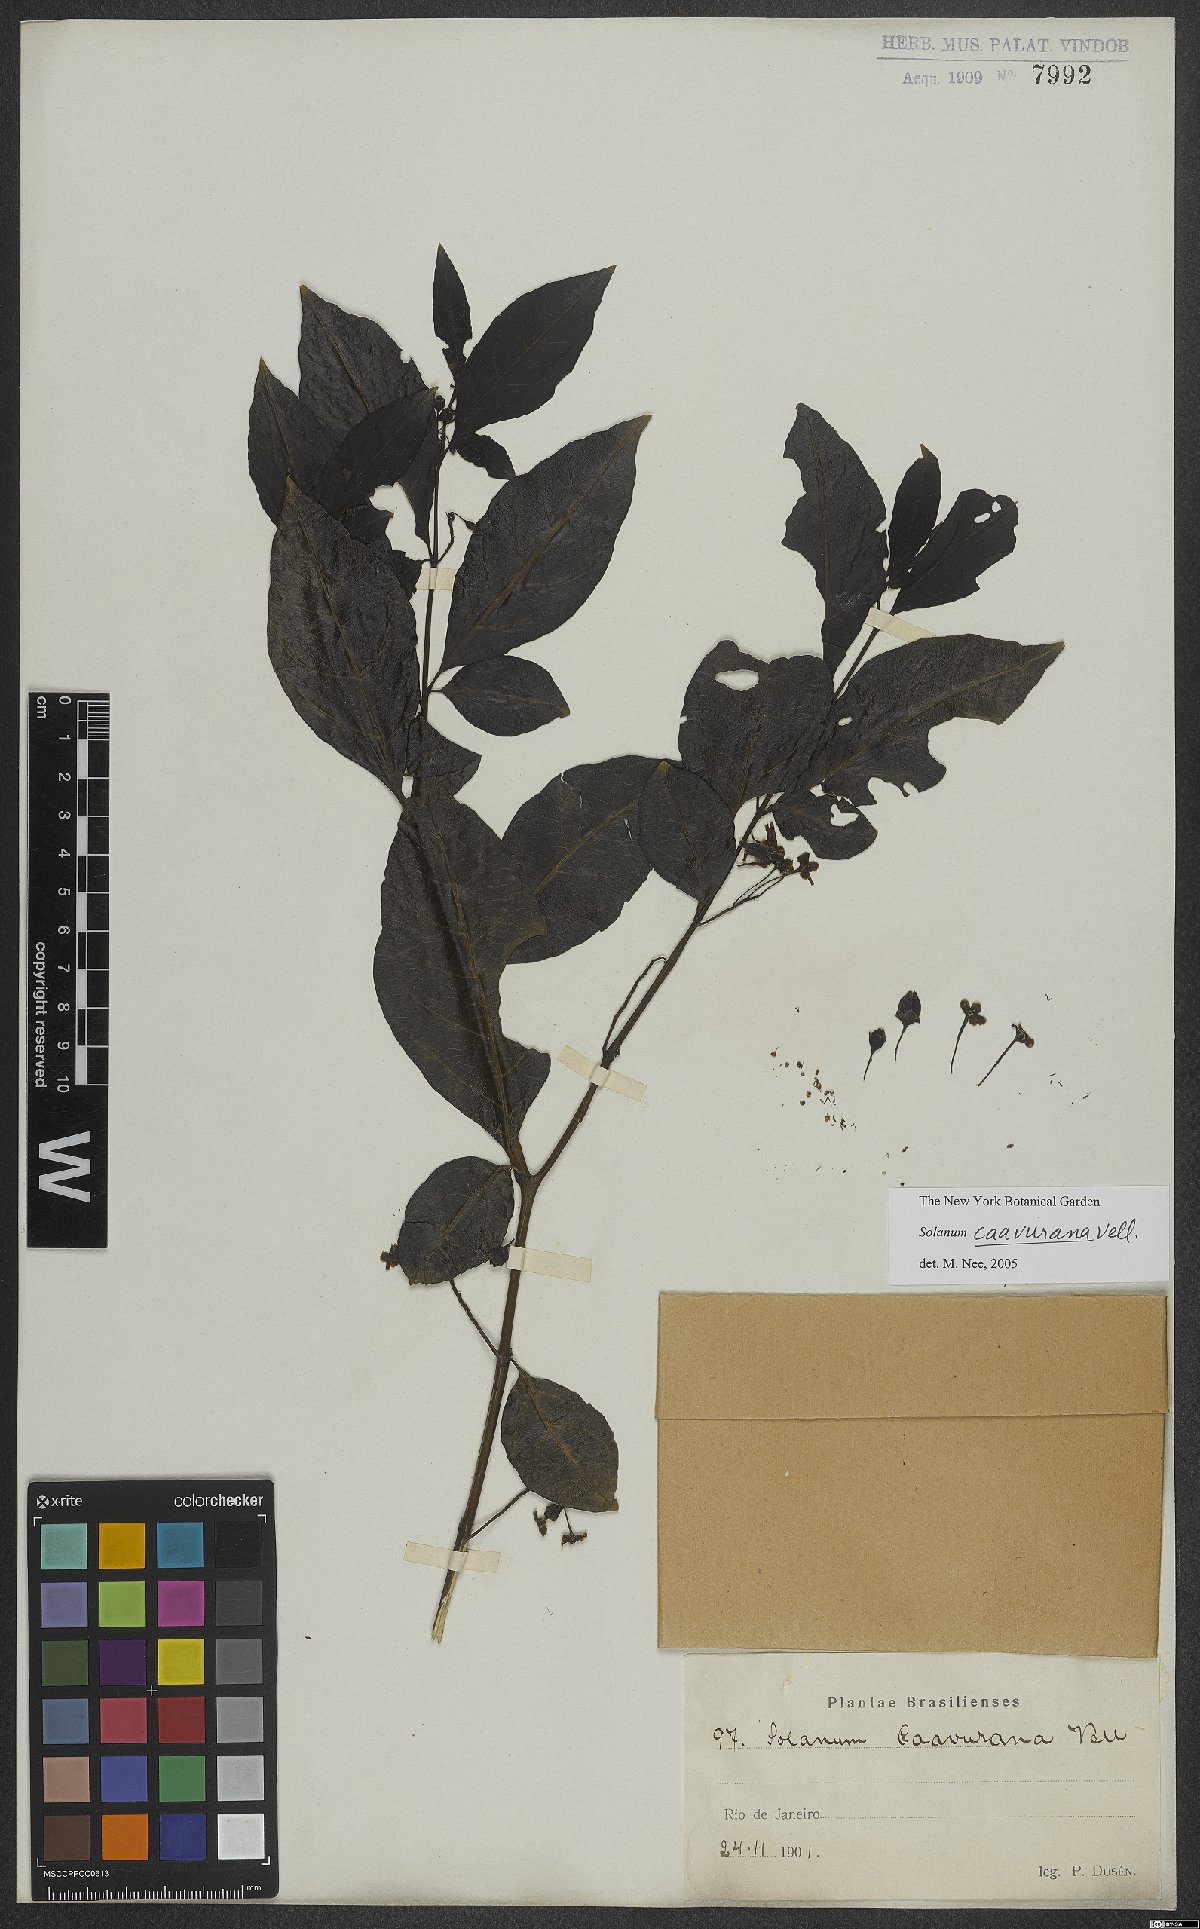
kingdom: Plantae
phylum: Tracheophyta
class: Magnoliopsida
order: Solanales
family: Solanaceae
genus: Solanum
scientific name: Solanum caavurana
